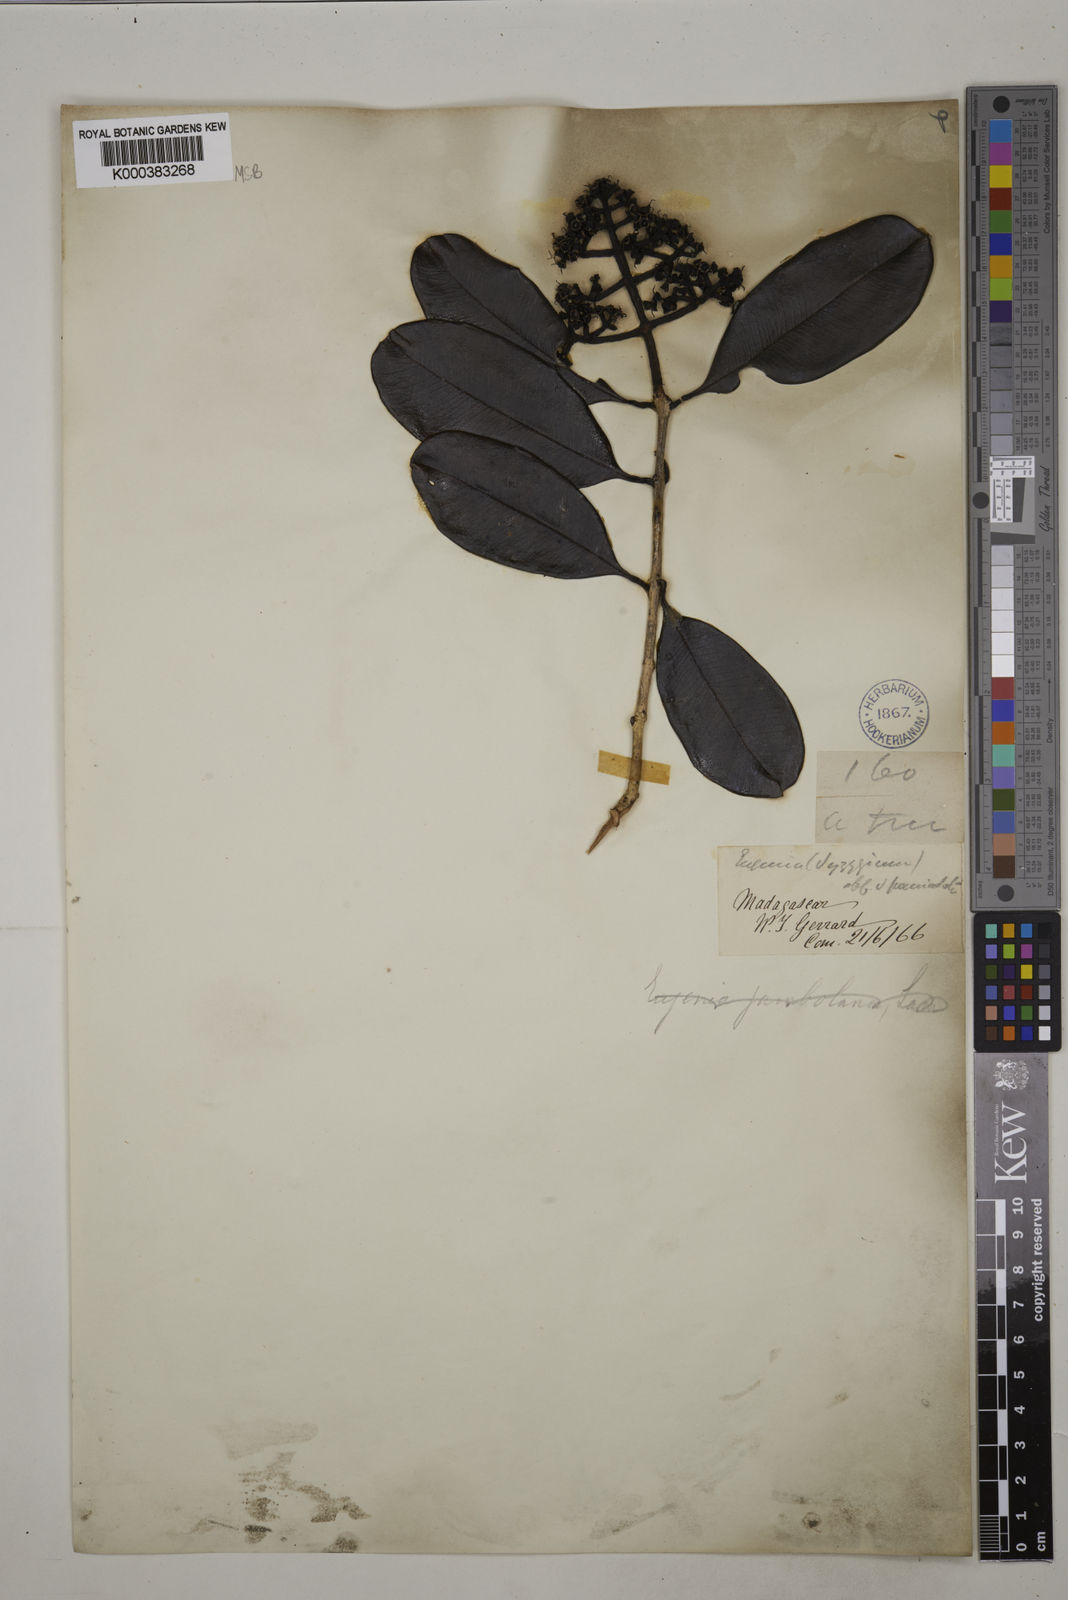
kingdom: Plantae
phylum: Tracheophyta
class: Magnoliopsida
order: Myrtales
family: Myrtaceae
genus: Syzygium
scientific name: Syzygium emirnense
